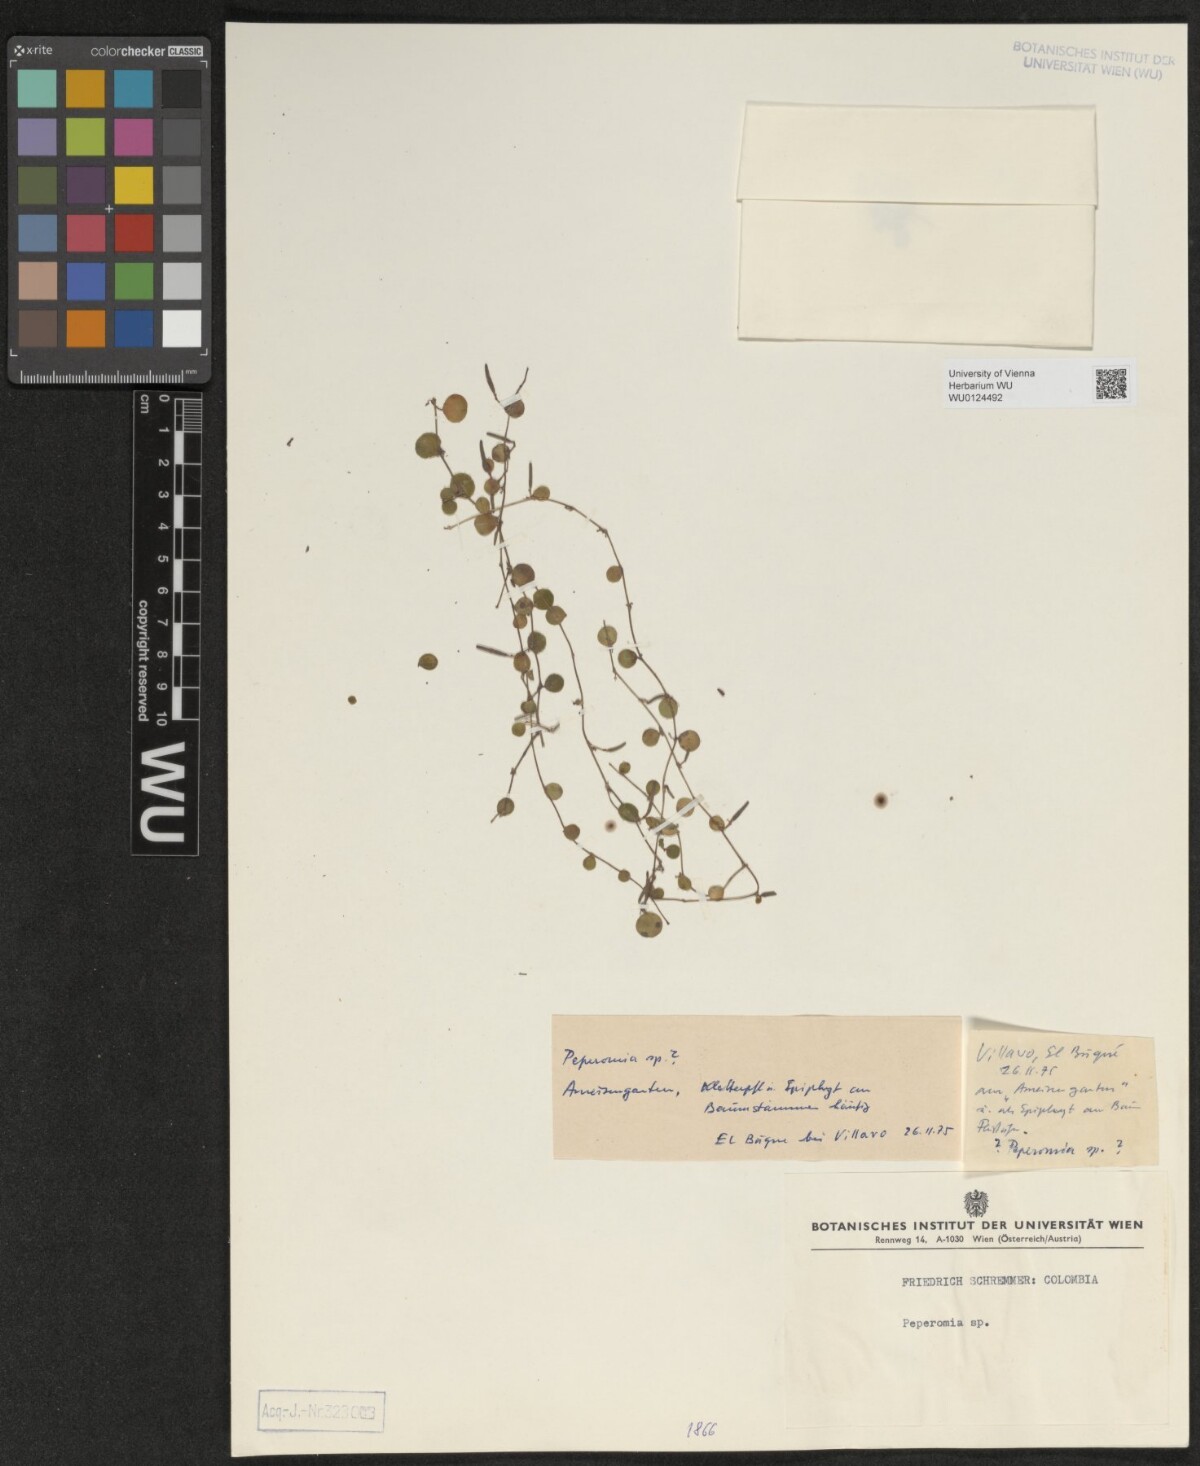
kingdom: Plantae
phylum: Tracheophyta
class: Magnoliopsida
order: Piperales
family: Piperaceae
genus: Peperomia
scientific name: Peperomia
